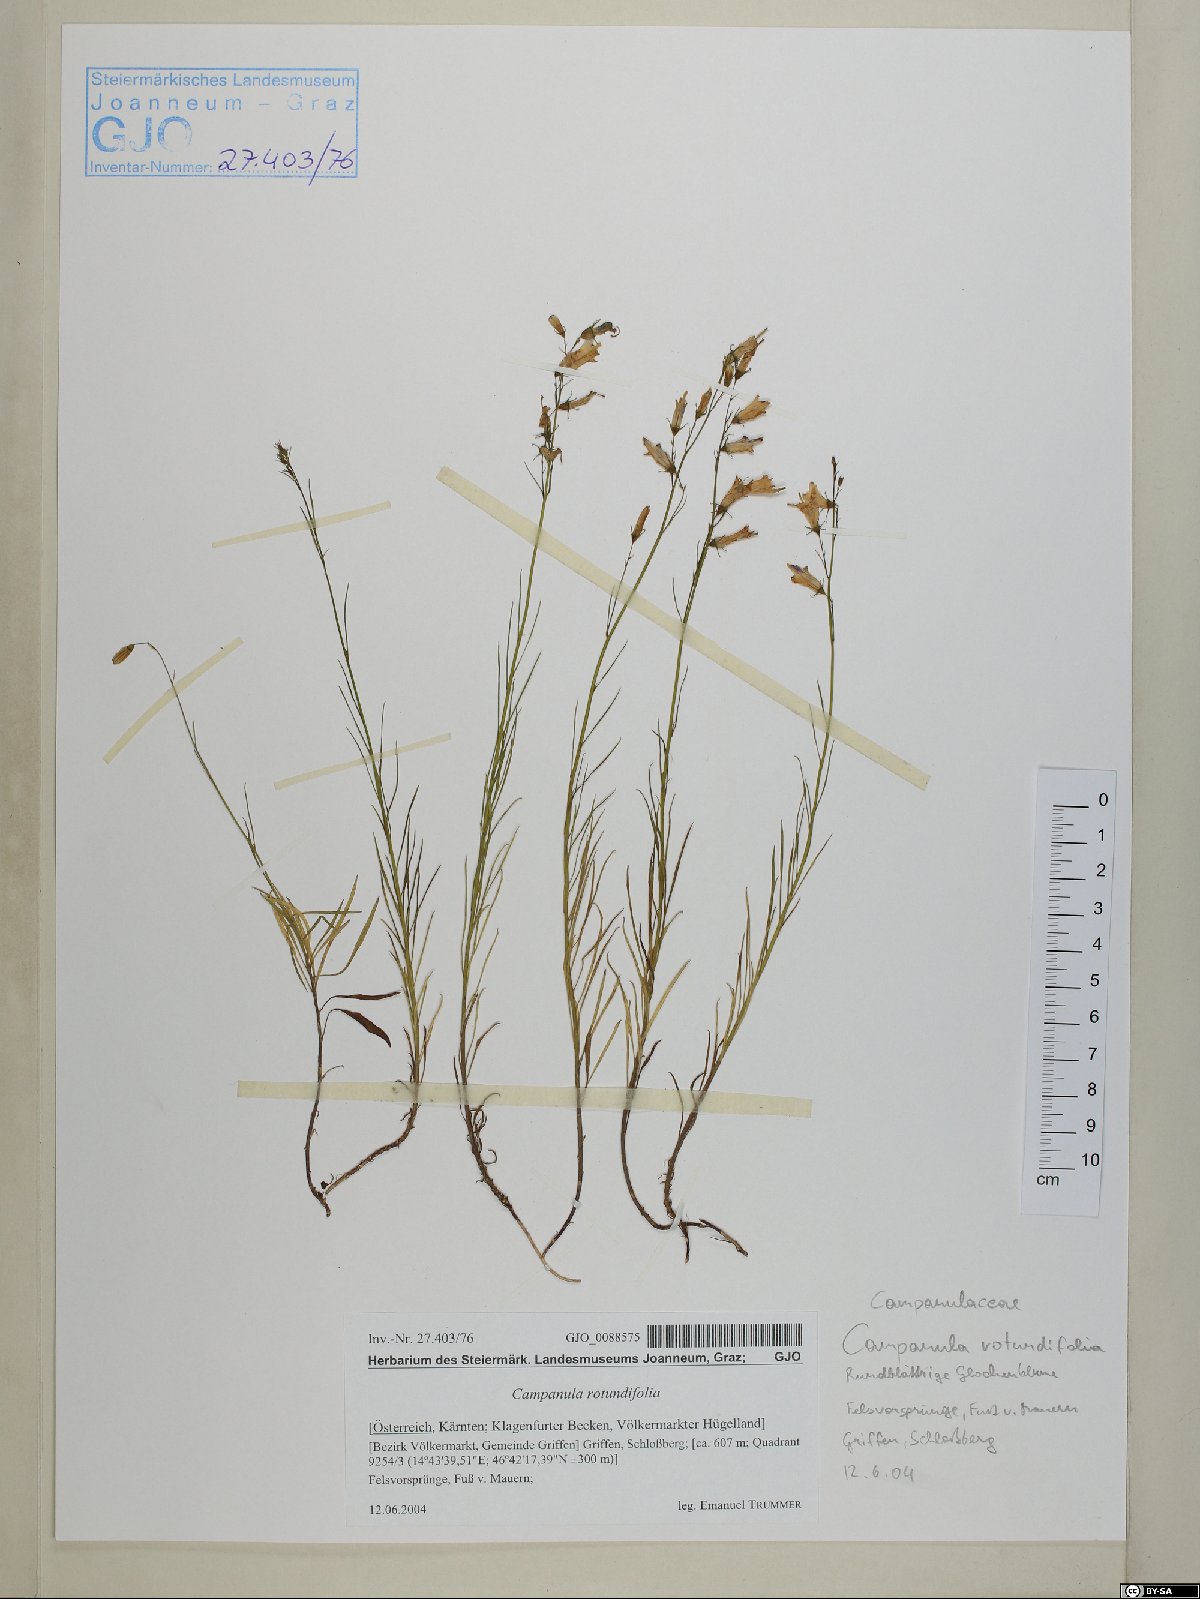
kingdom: Plantae
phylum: Tracheophyta
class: Magnoliopsida
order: Asterales
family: Campanulaceae
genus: Campanula
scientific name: Campanula rotundifolia
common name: Harebell
